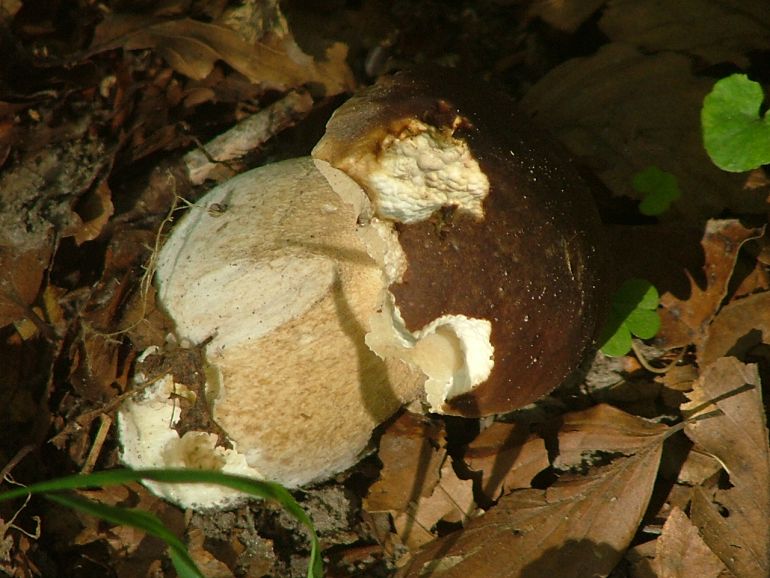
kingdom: Fungi
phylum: Basidiomycota
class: Agaricomycetes
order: Boletales
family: Boletaceae
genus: Boletus
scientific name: Boletus edulis
